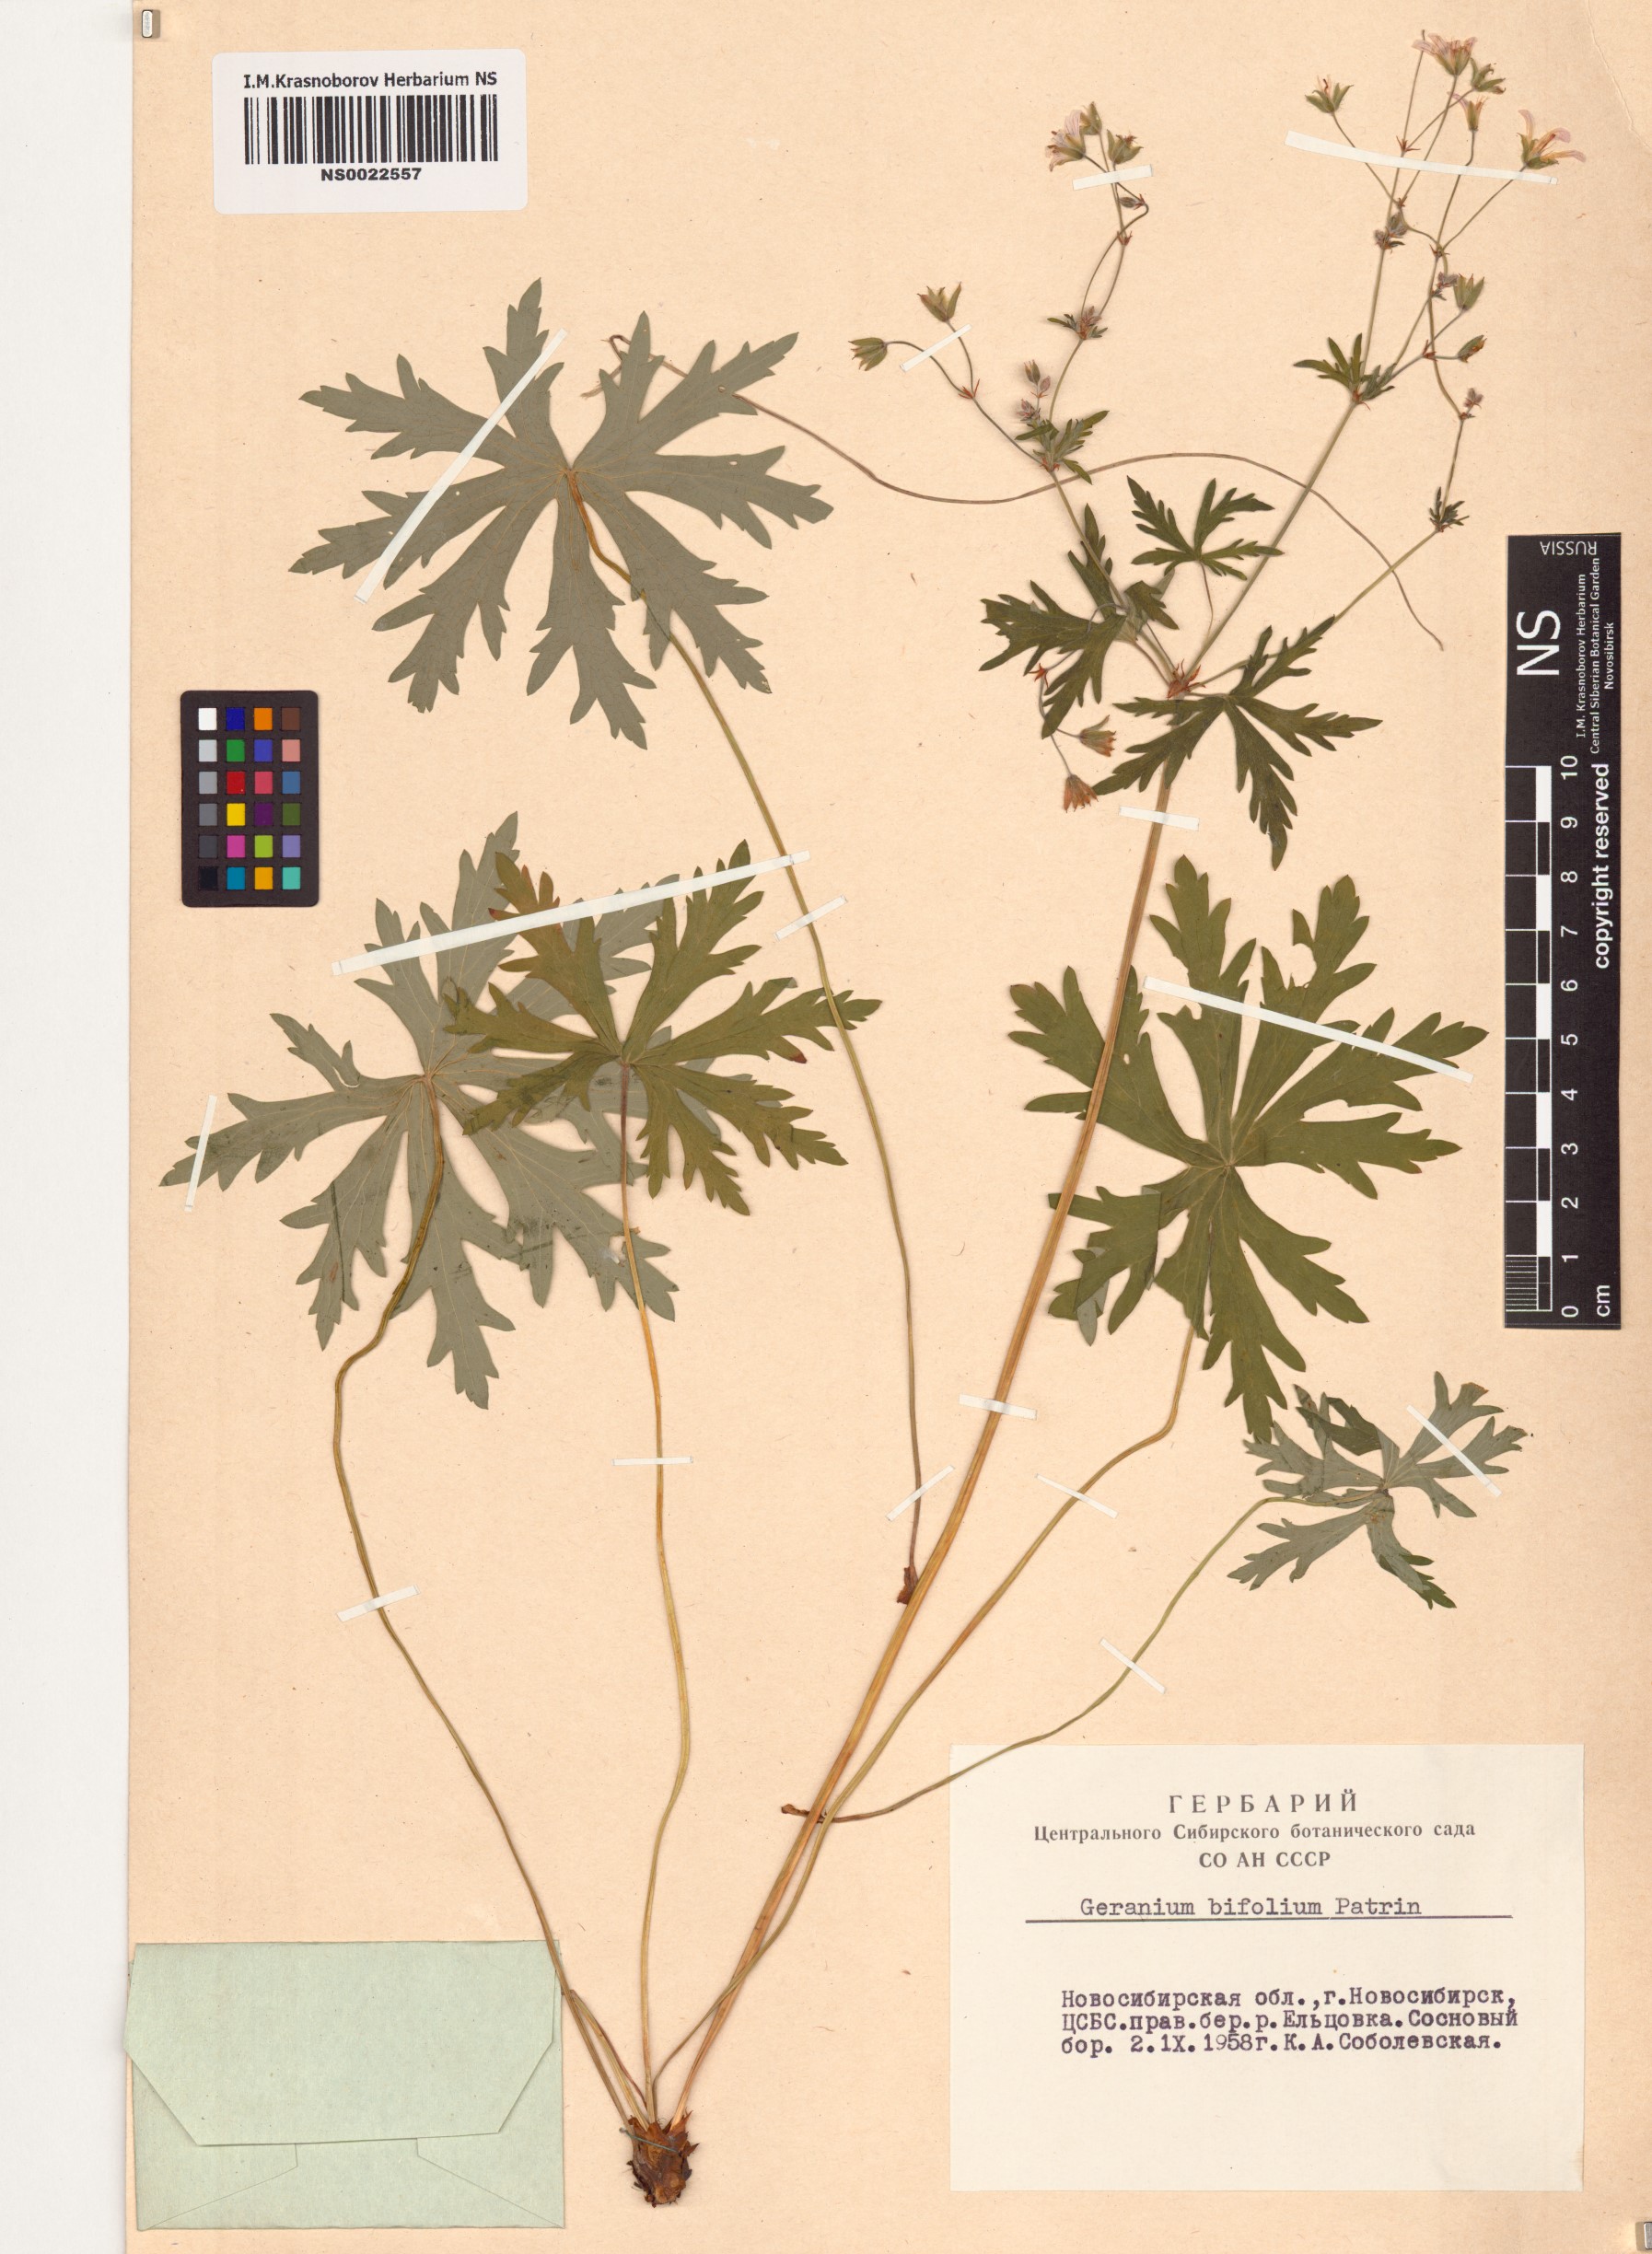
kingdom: Plantae
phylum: Tracheophyta
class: Magnoliopsida
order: Geraniales
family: Geraniaceae
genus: Geranium
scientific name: Geranium pseudosibiricum
